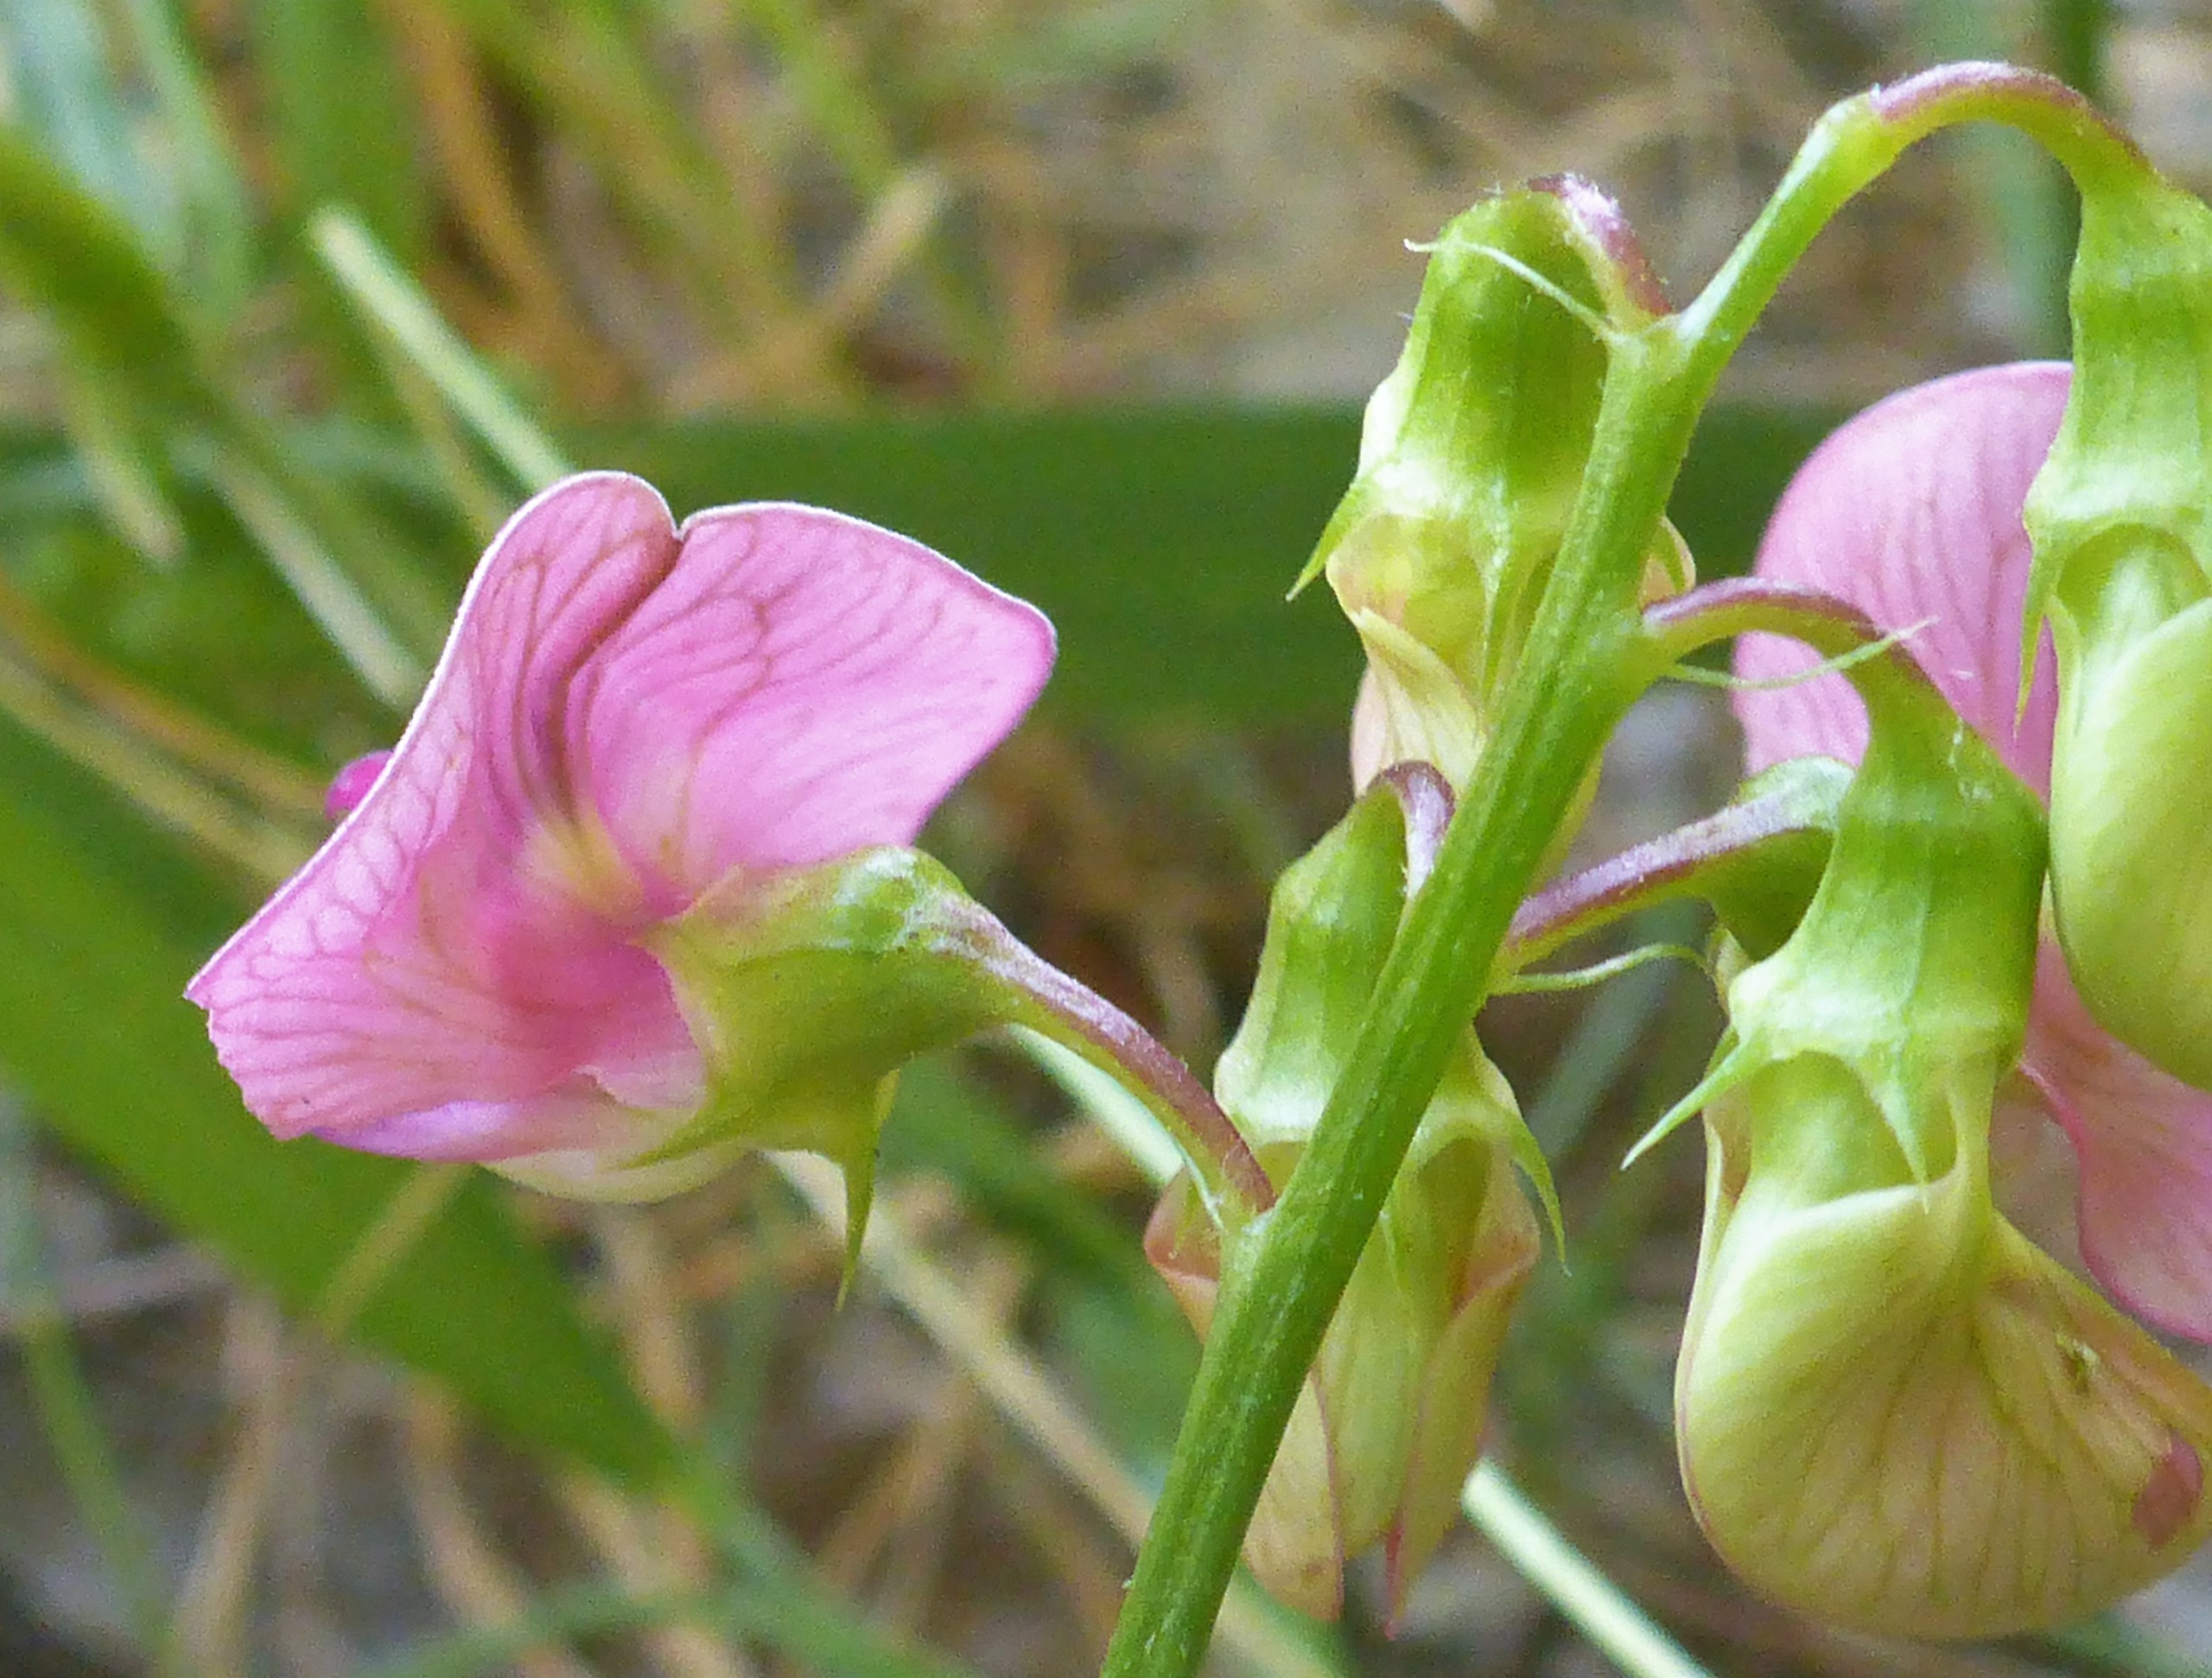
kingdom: Plantae
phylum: Tracheophyta
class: Magnoliopsida
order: Fabales
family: Fabaceae
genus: Lathyrus
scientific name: Lathyrus sylvestris
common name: Skov-fladbælg
